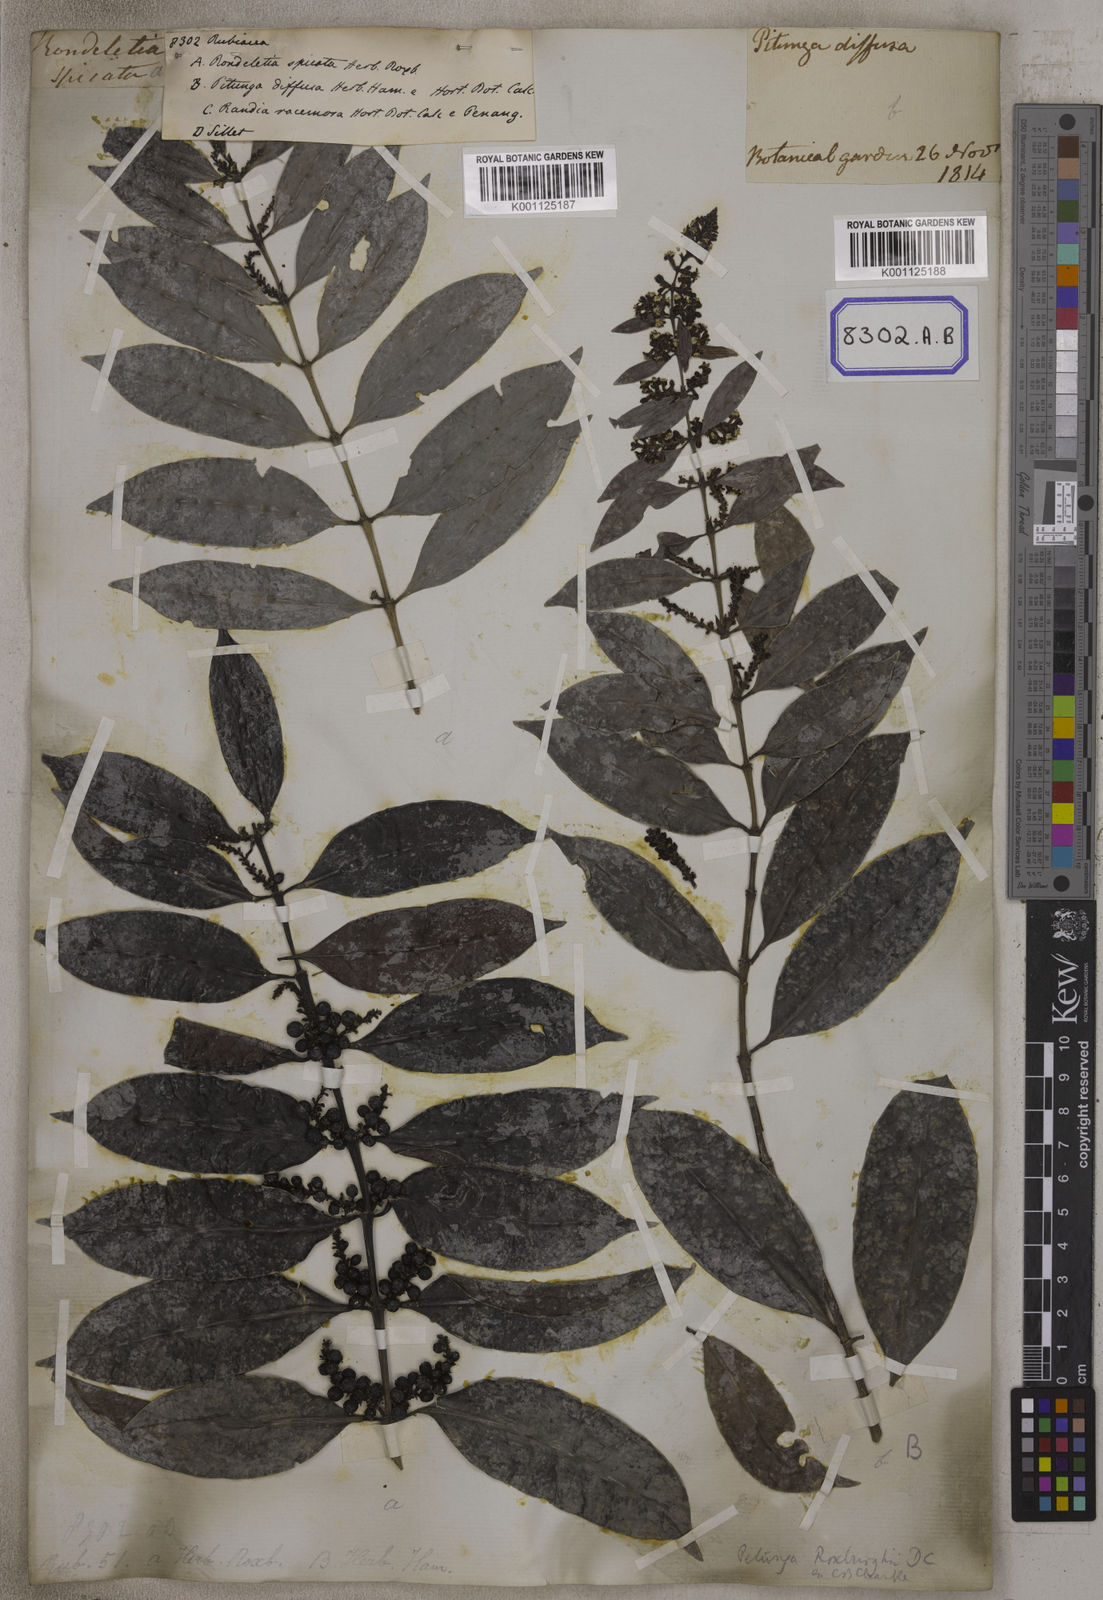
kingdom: Plantae
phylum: Tracheophyta
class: Magnoliopsida
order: Gentianales
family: Rubiaceae
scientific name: Rubiaceae
